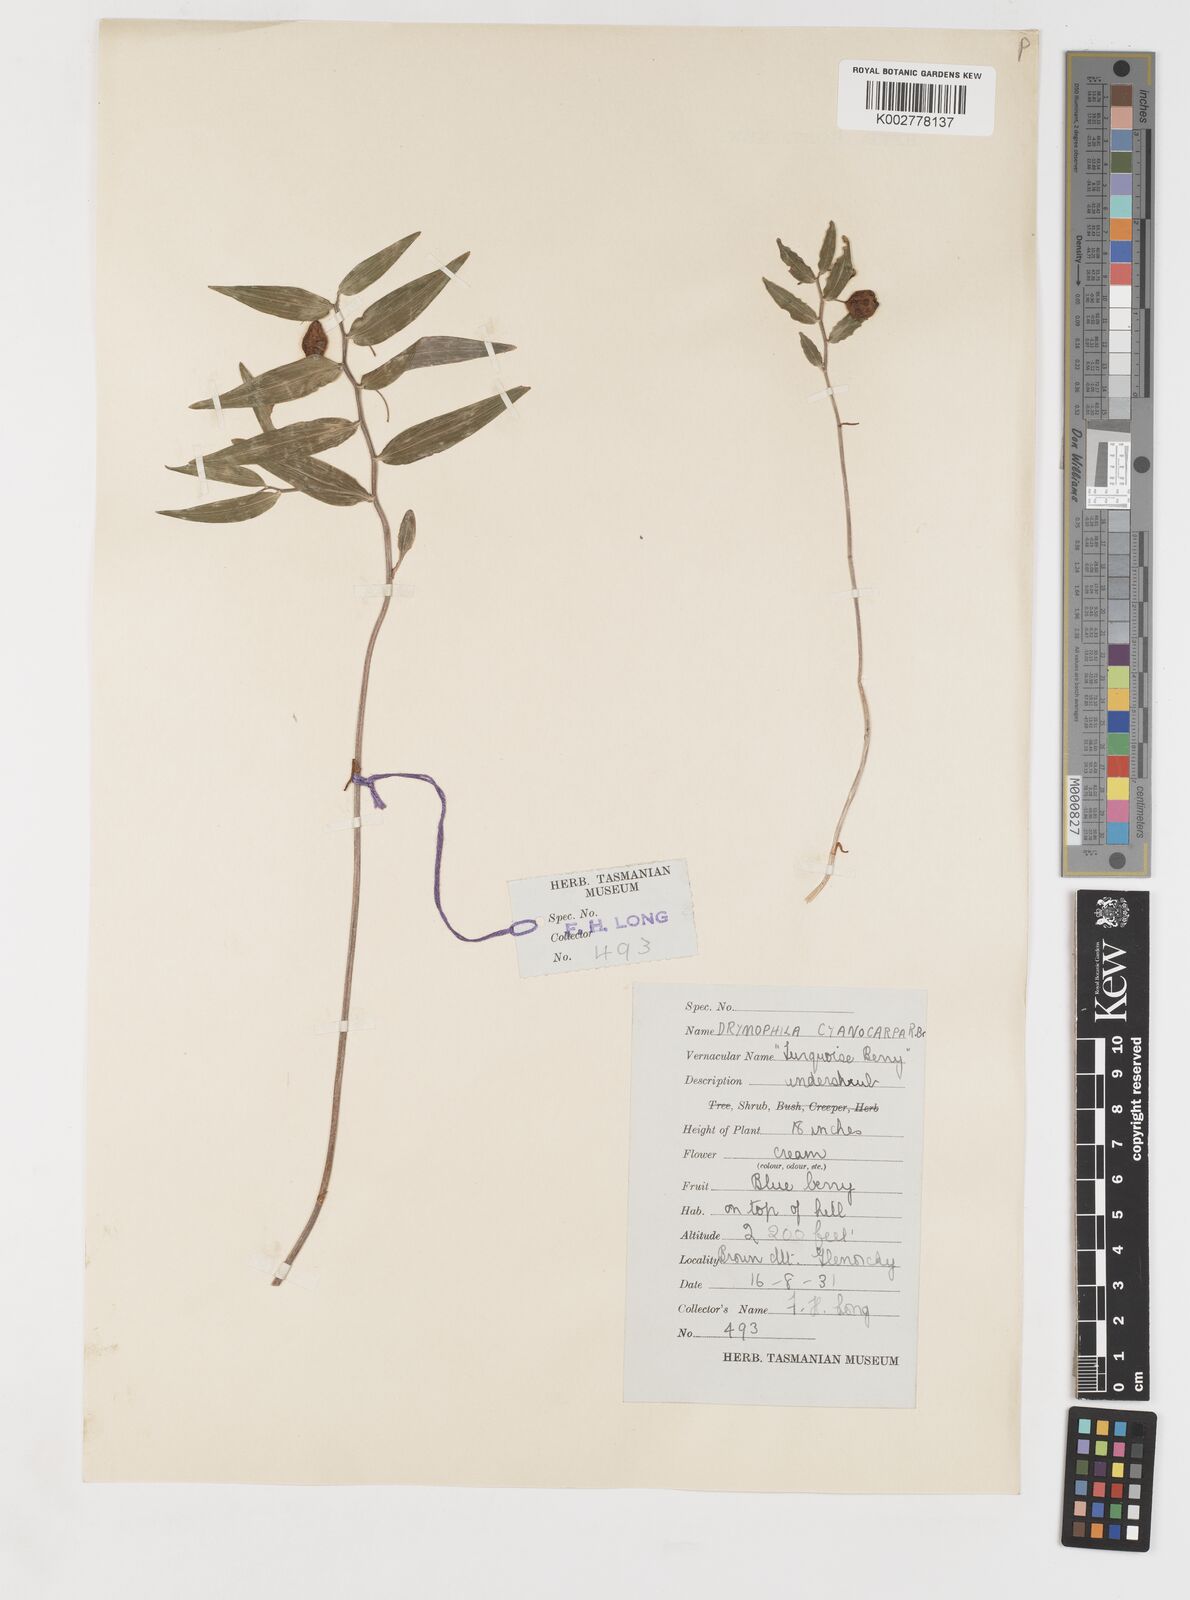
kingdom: Plantae
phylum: Tracheophyta
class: Liliopsida
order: Liliales
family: Alstroemeriaceae
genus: Drymophila
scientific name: Drymophila cyanocarpa
